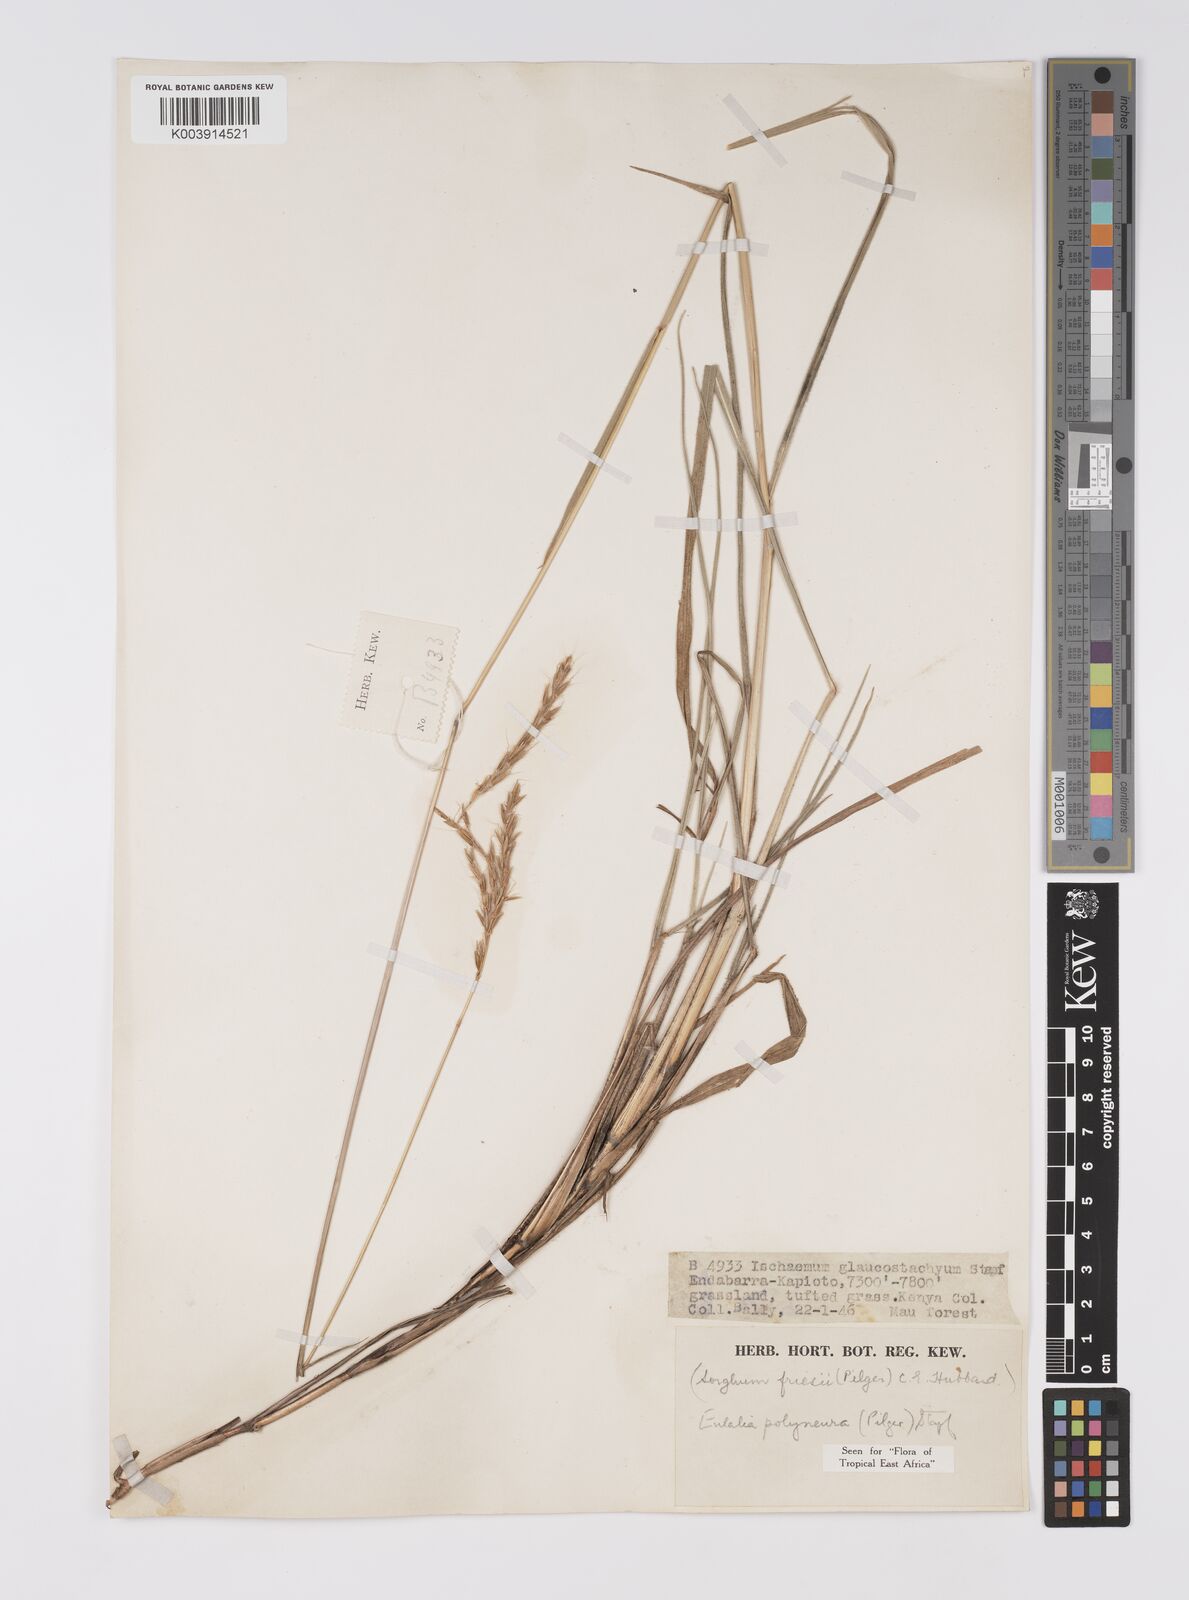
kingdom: Plantae
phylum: Tracheophyta
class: Liliopsida
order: Poales
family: Poaceae
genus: Eulalia
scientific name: Eulalia polyneura
